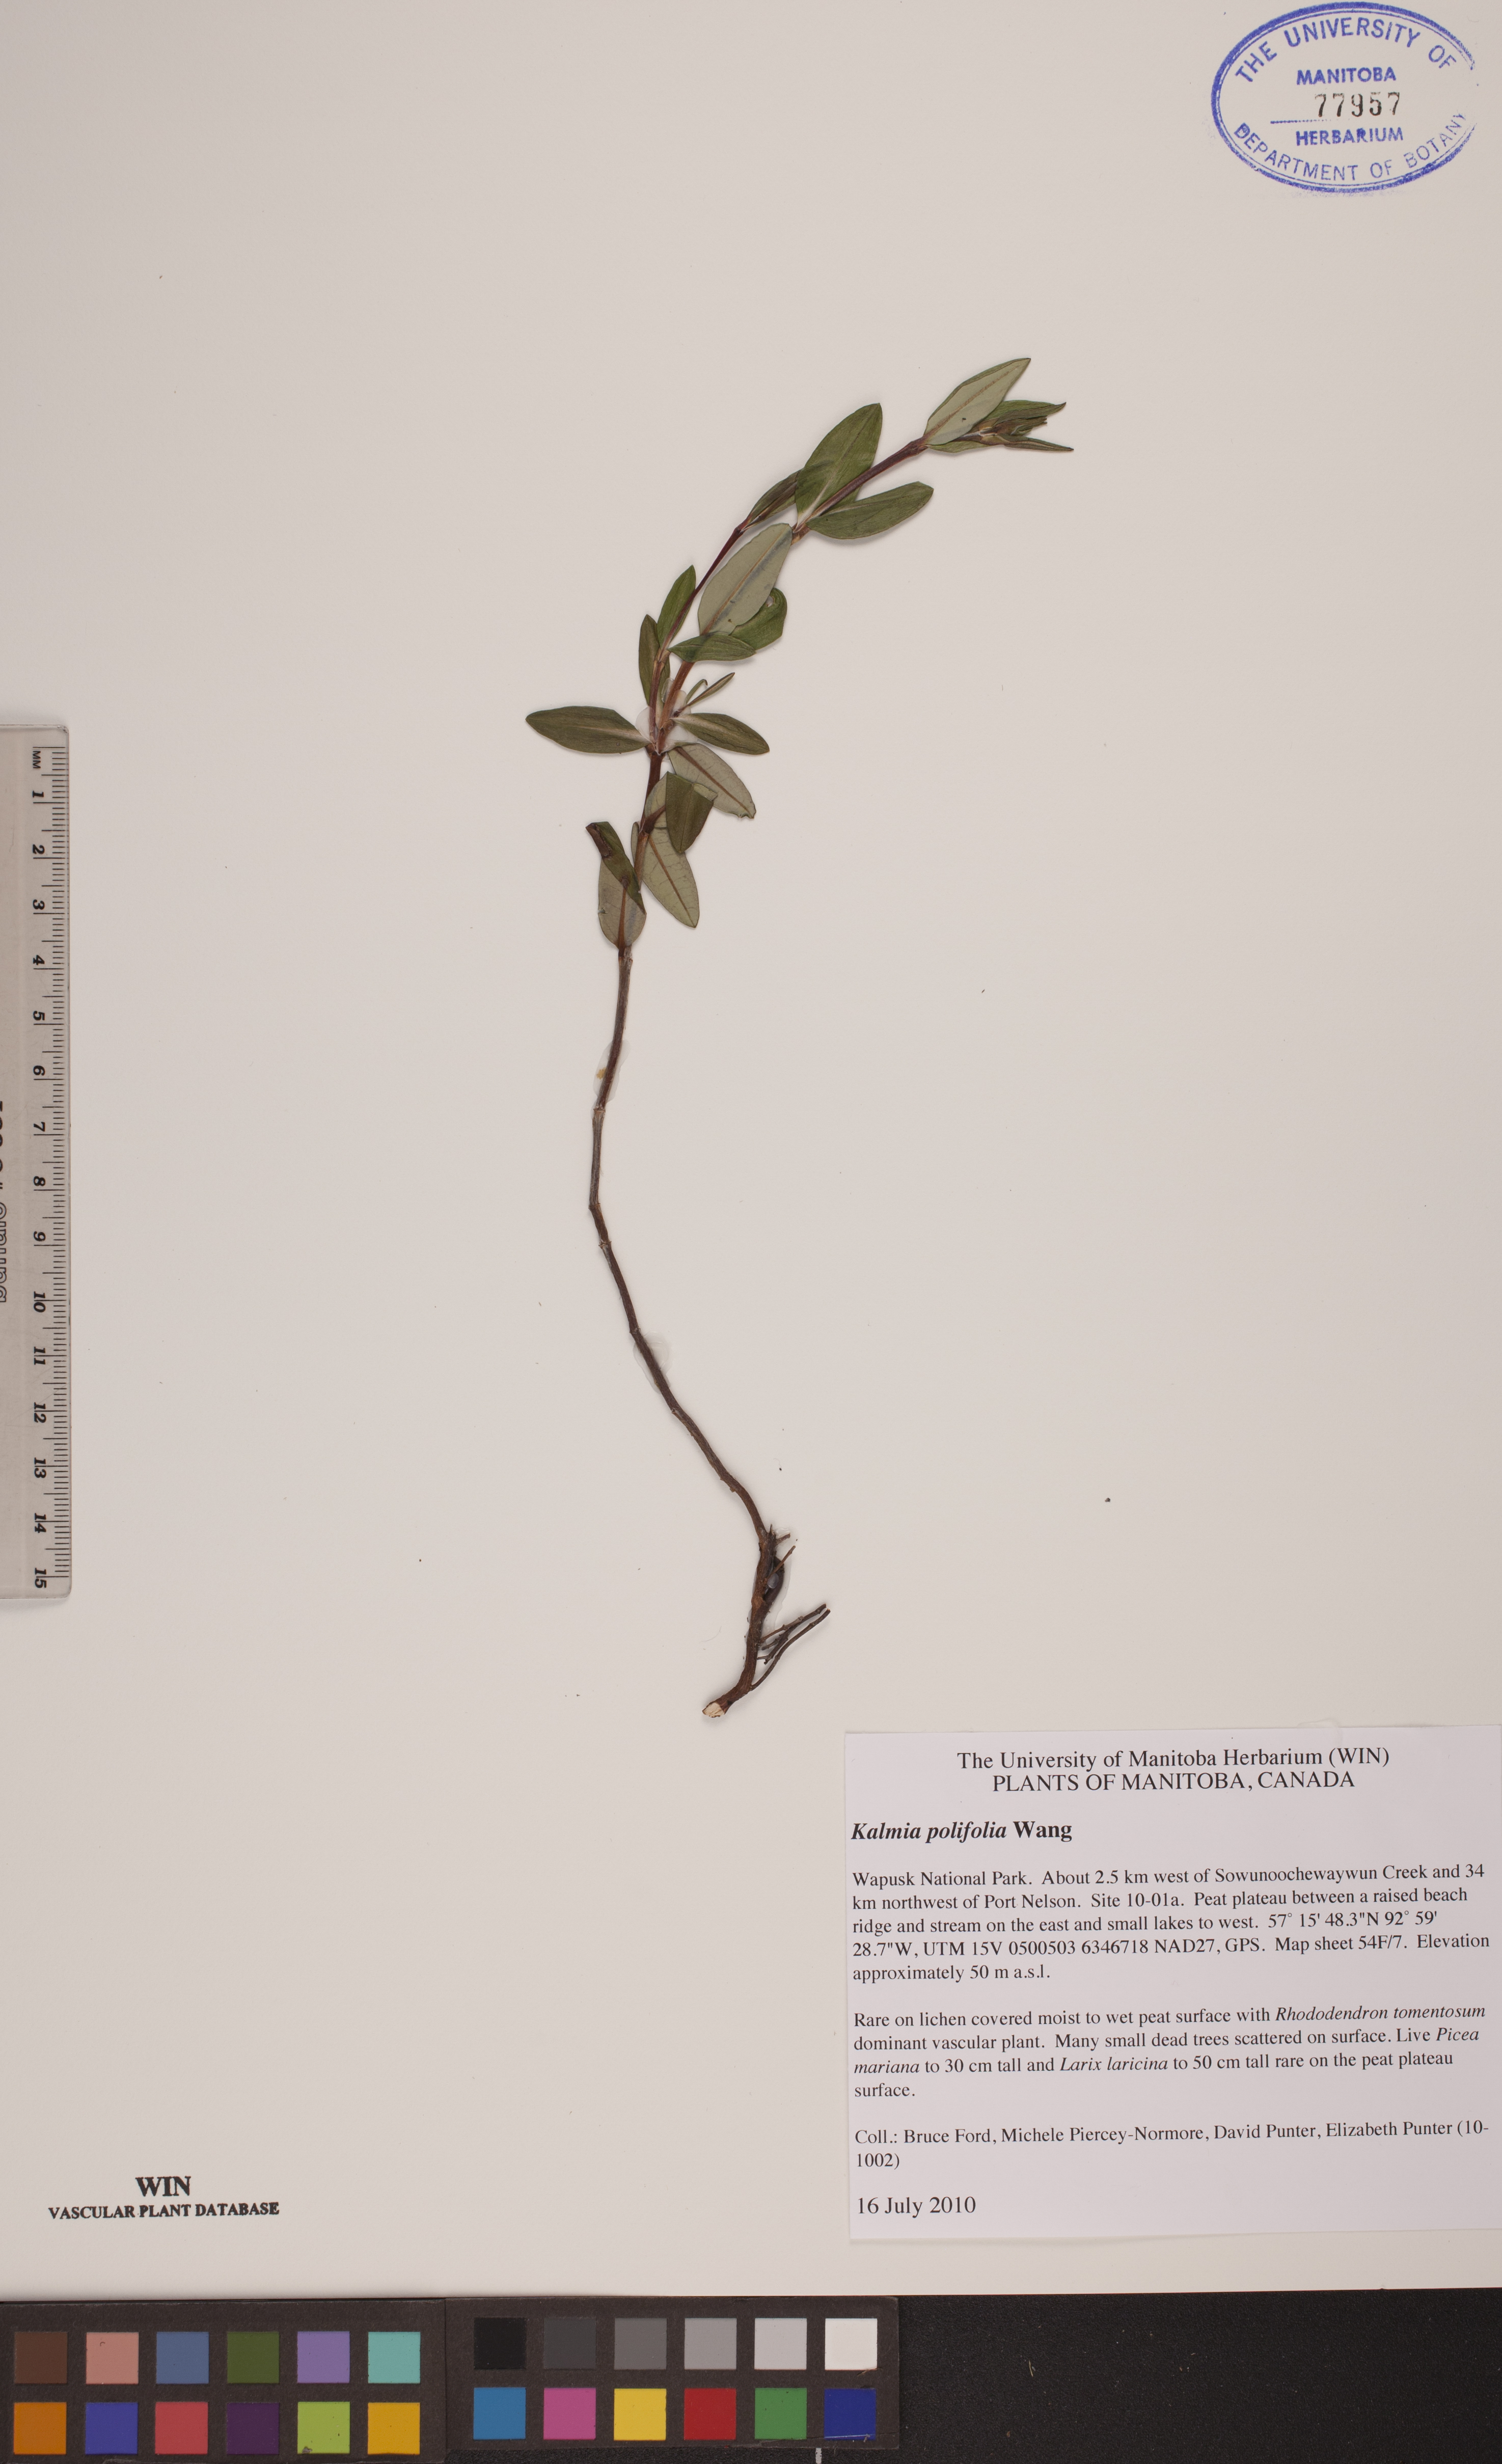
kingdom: Plantae
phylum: Tracheophyta
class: Magnoliopsida
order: Ericales
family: Ericaceae
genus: Kalmia
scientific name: Kalmia polifolia
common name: Bog-laurel
